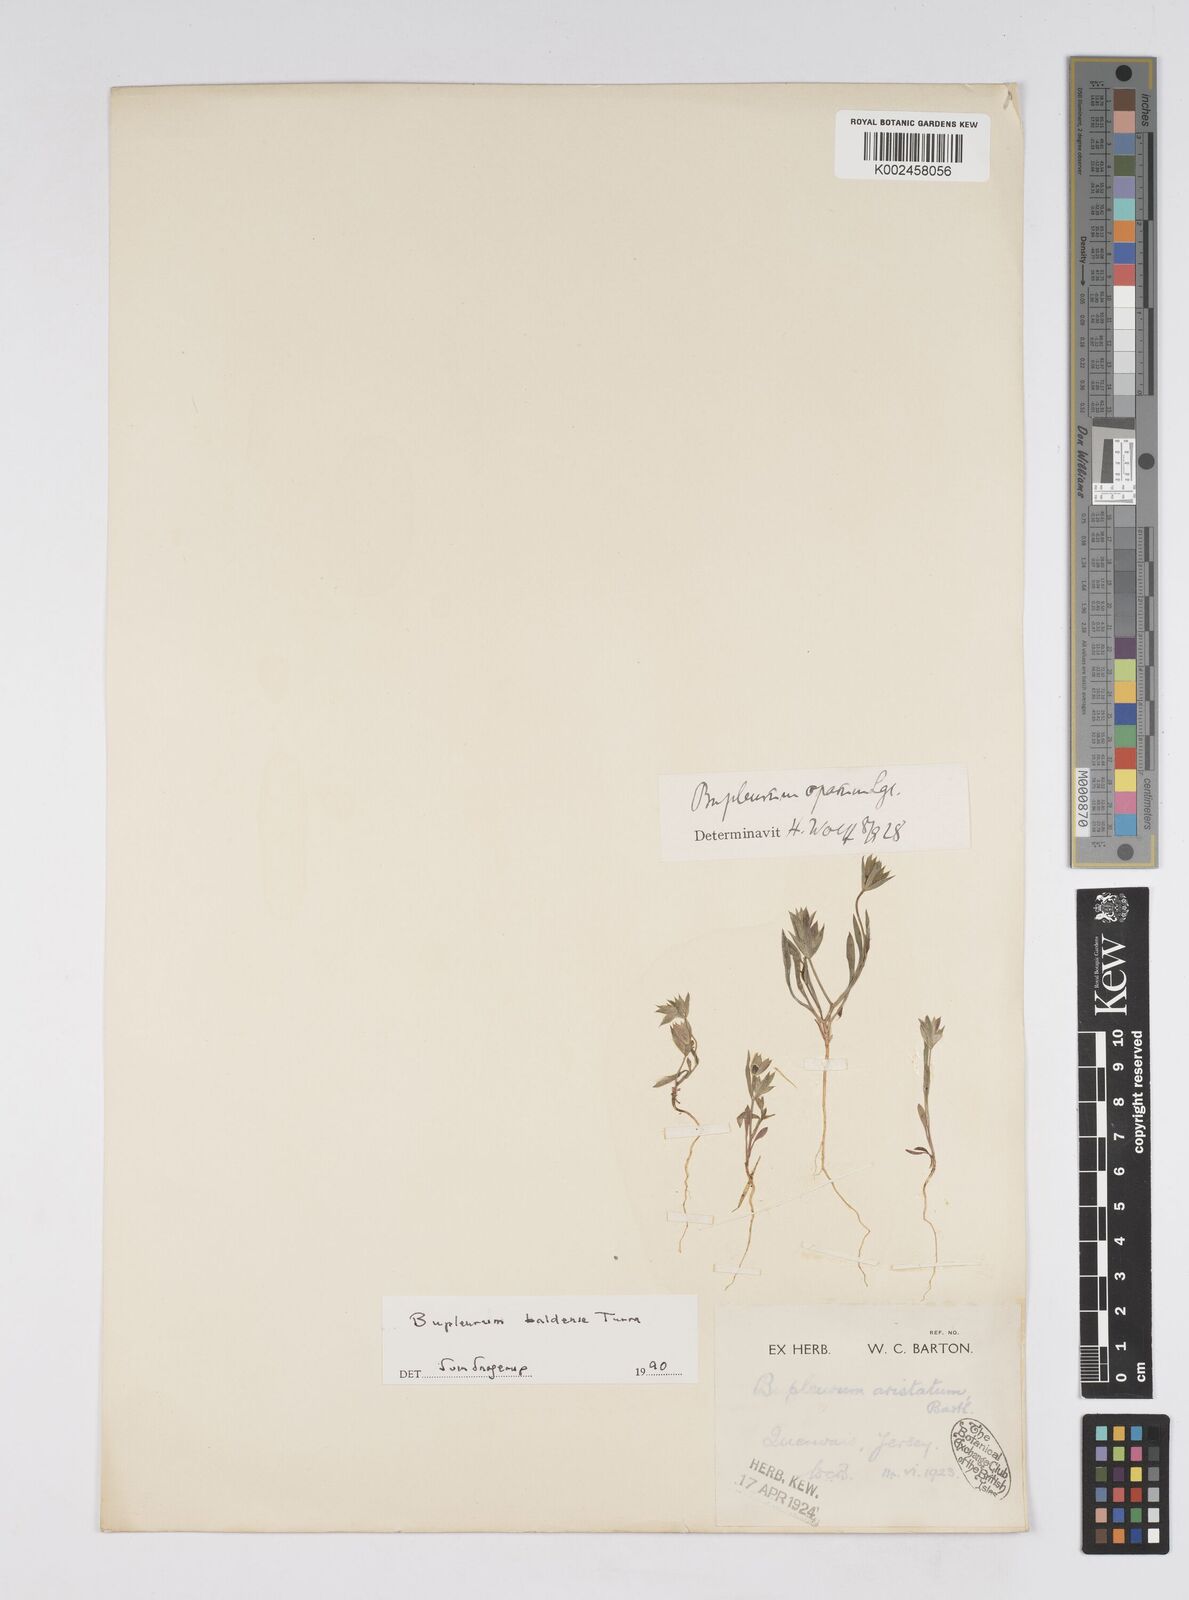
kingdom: Plantae
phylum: Tracheophyta
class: Magnoliopsida
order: Apiales
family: Apiaceae
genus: Bupleurum
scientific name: Bupleurum baldense
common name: Small hare's-ear
